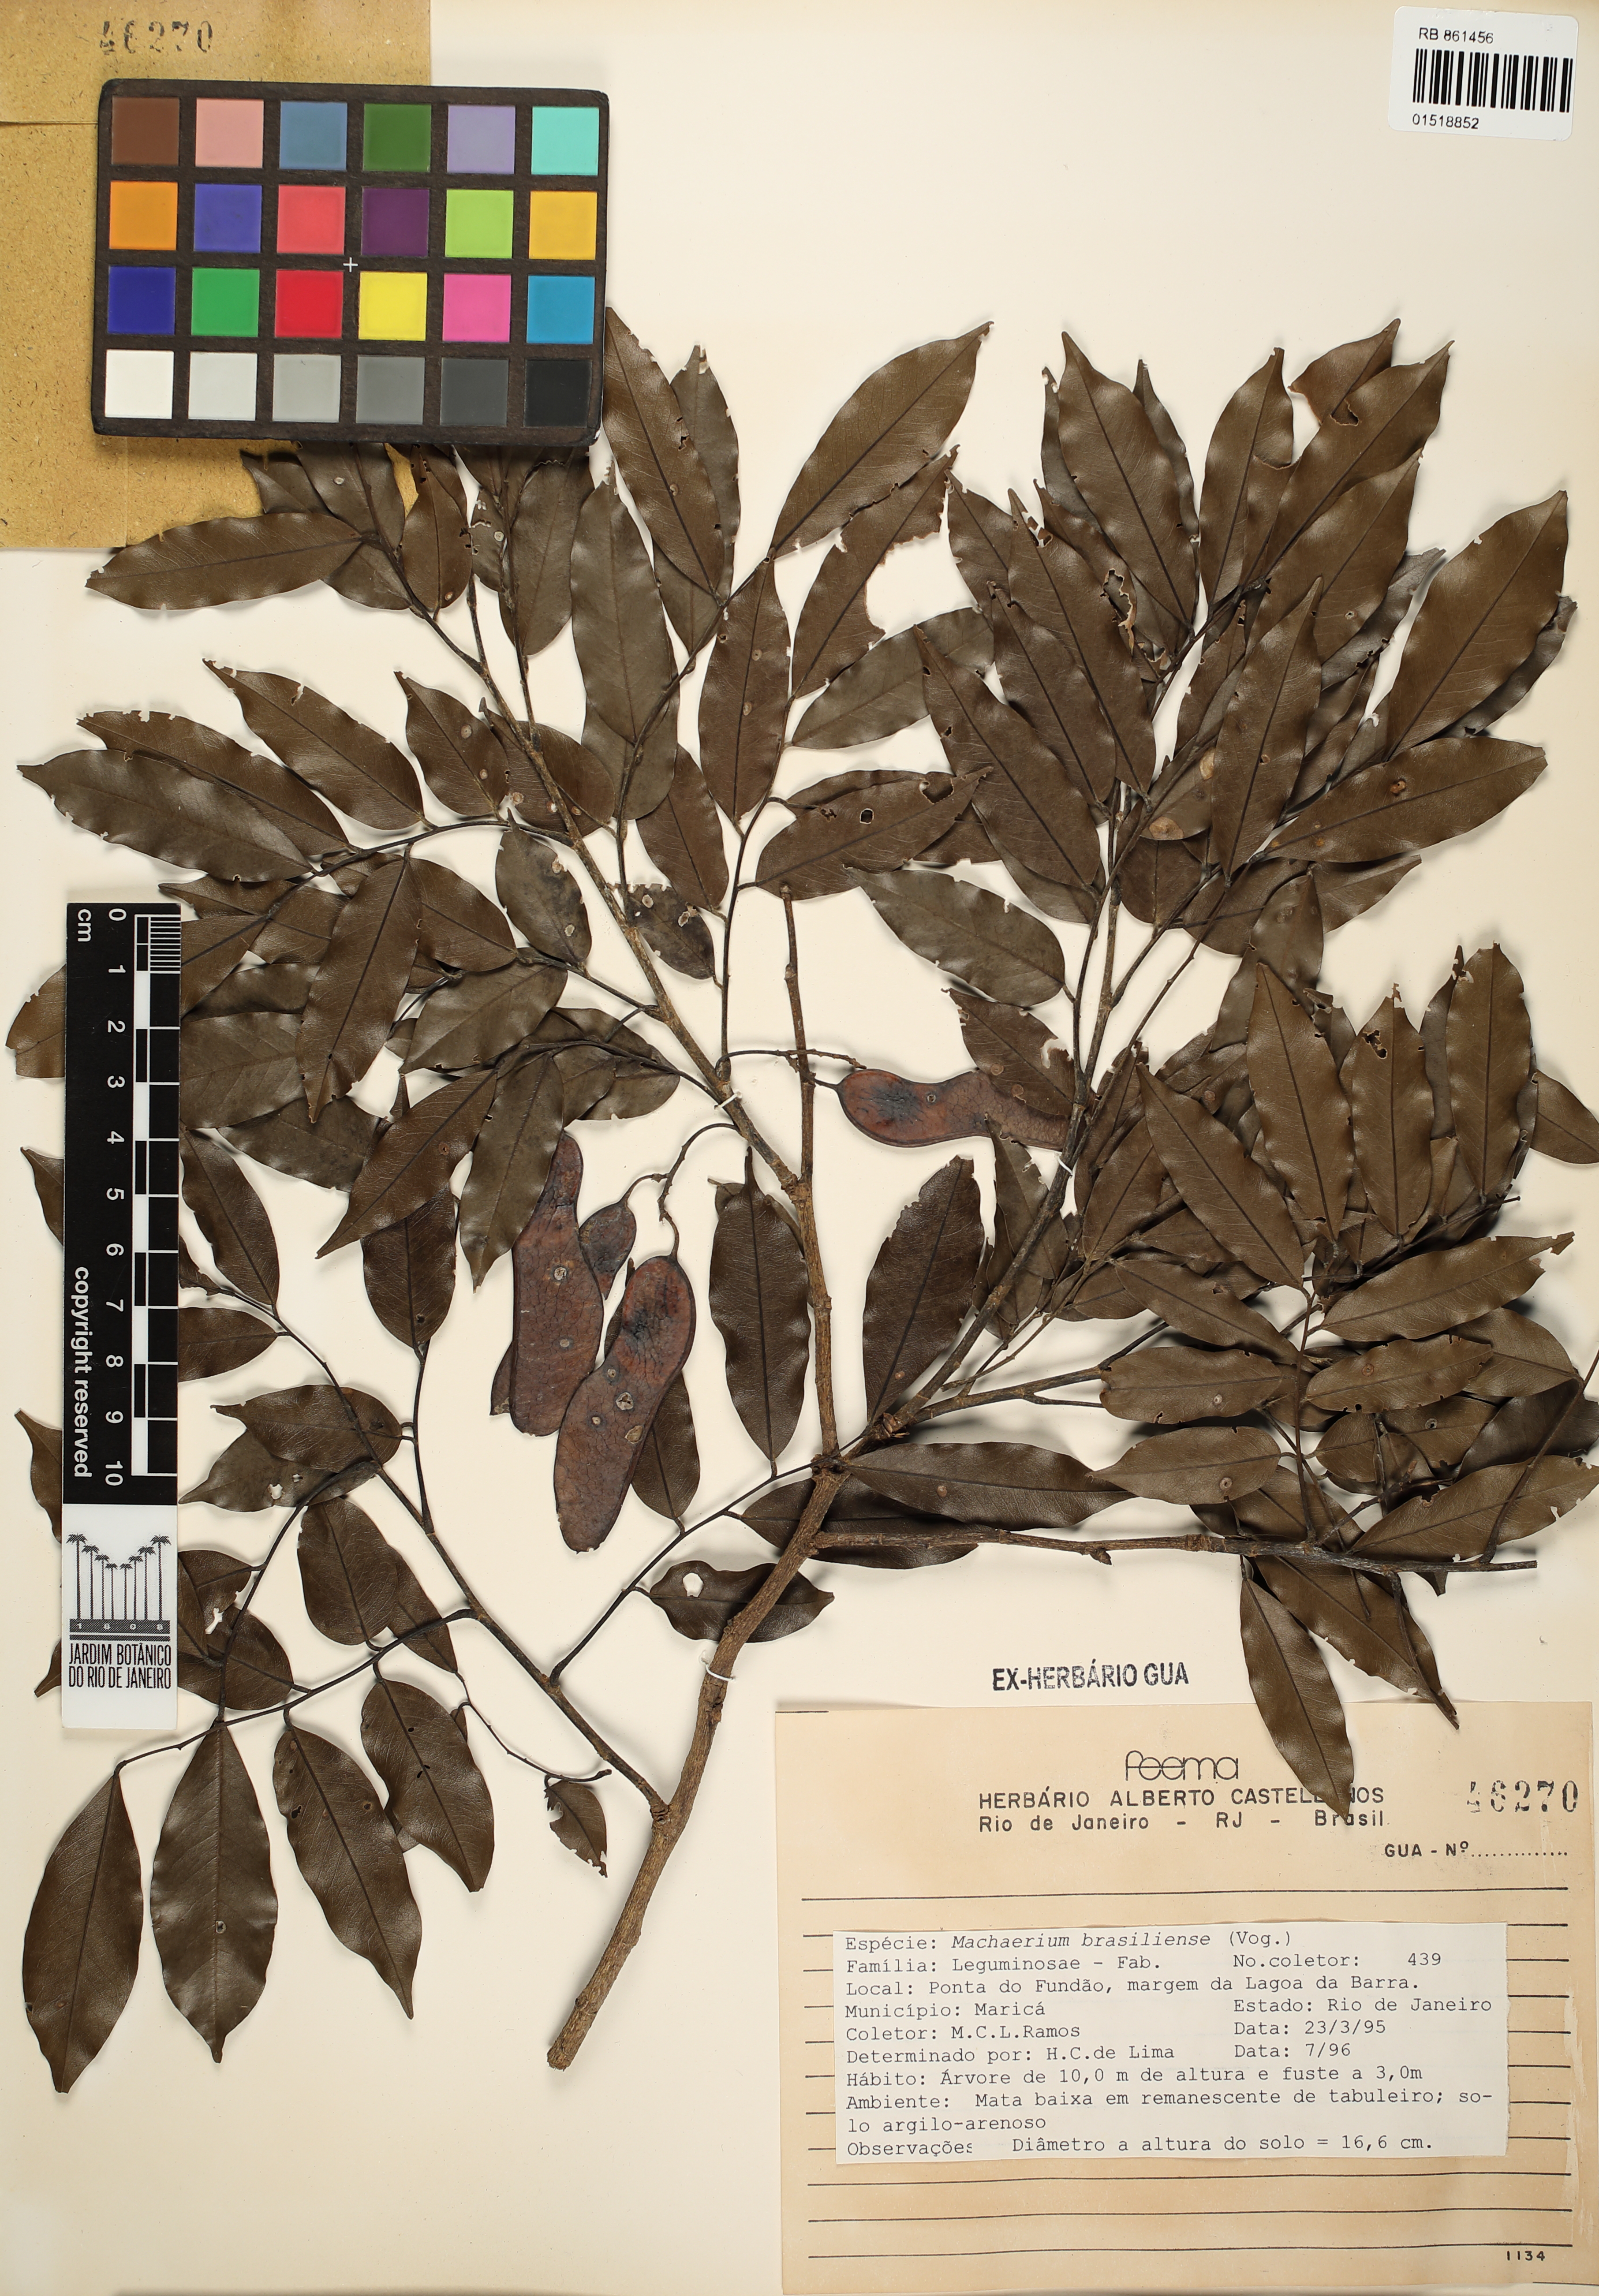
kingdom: Plantae
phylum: Tracheophyta
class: Magnoliopsida
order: Fabales
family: Fabaceae
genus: Machaerium
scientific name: Machaerium brasiliense
